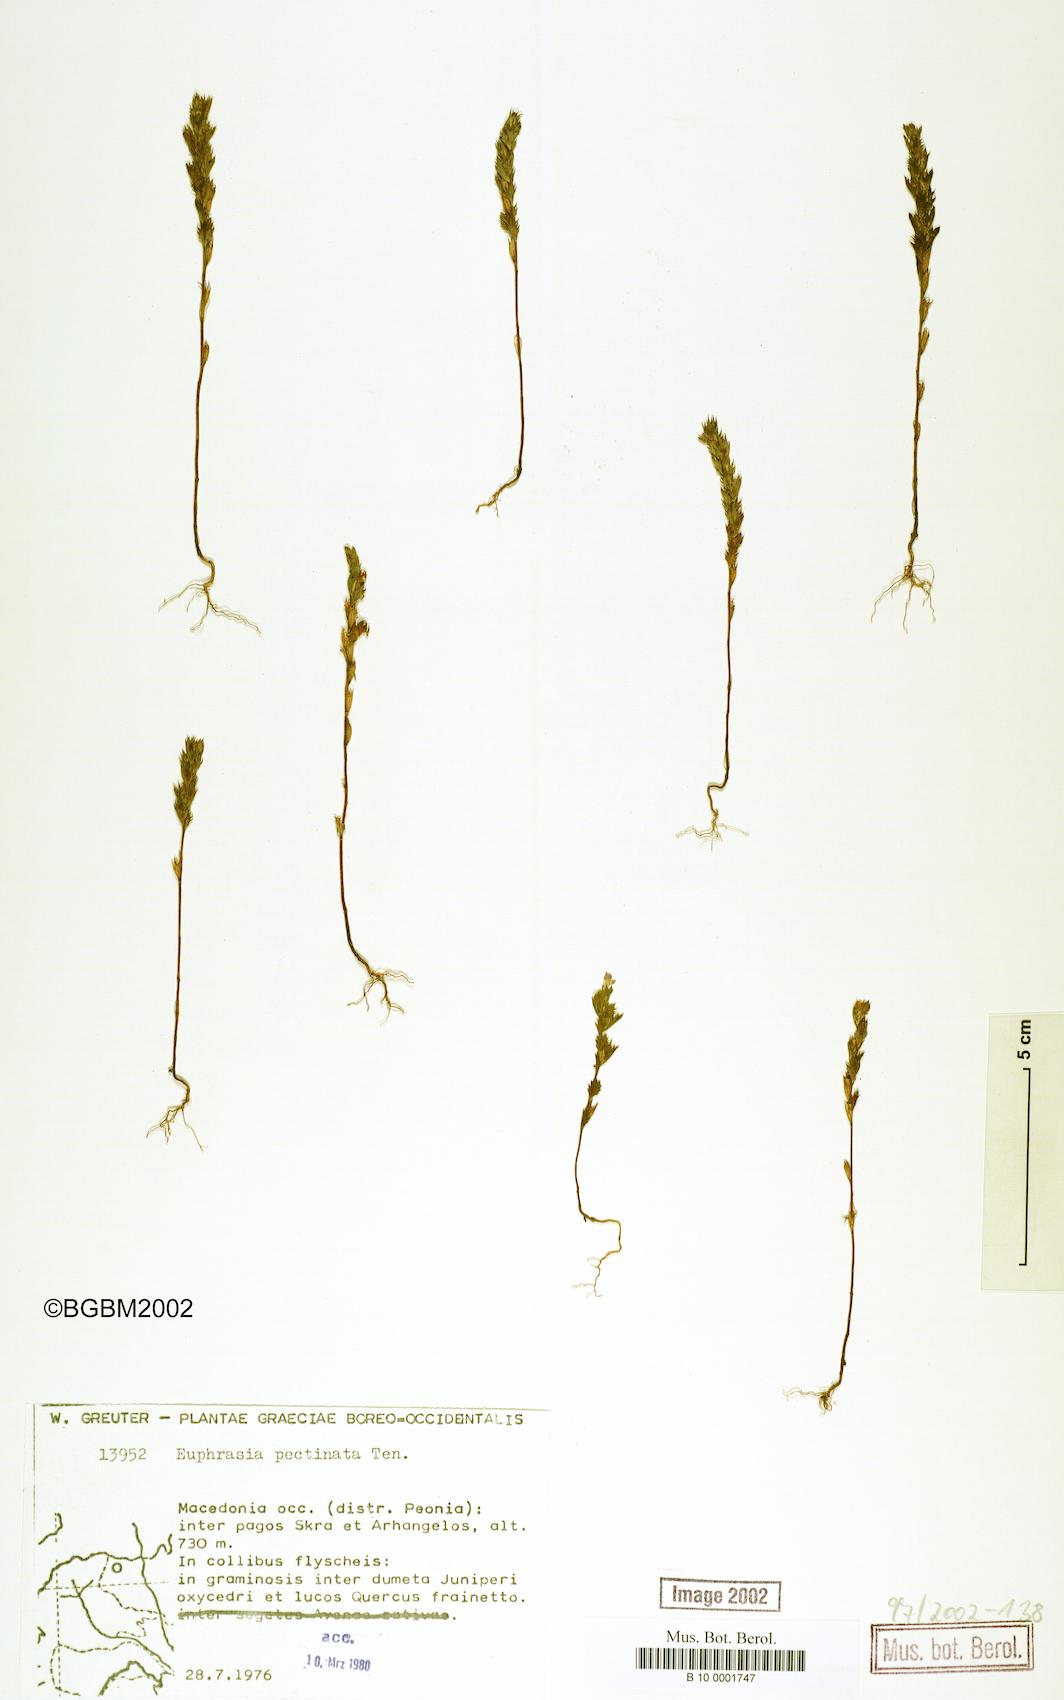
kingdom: Plantae
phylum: Tracheophyta
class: Magnoliopsida
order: Lamiales
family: Orobanchaceae
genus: Euphrasia
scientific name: Euphrasia pectinata
